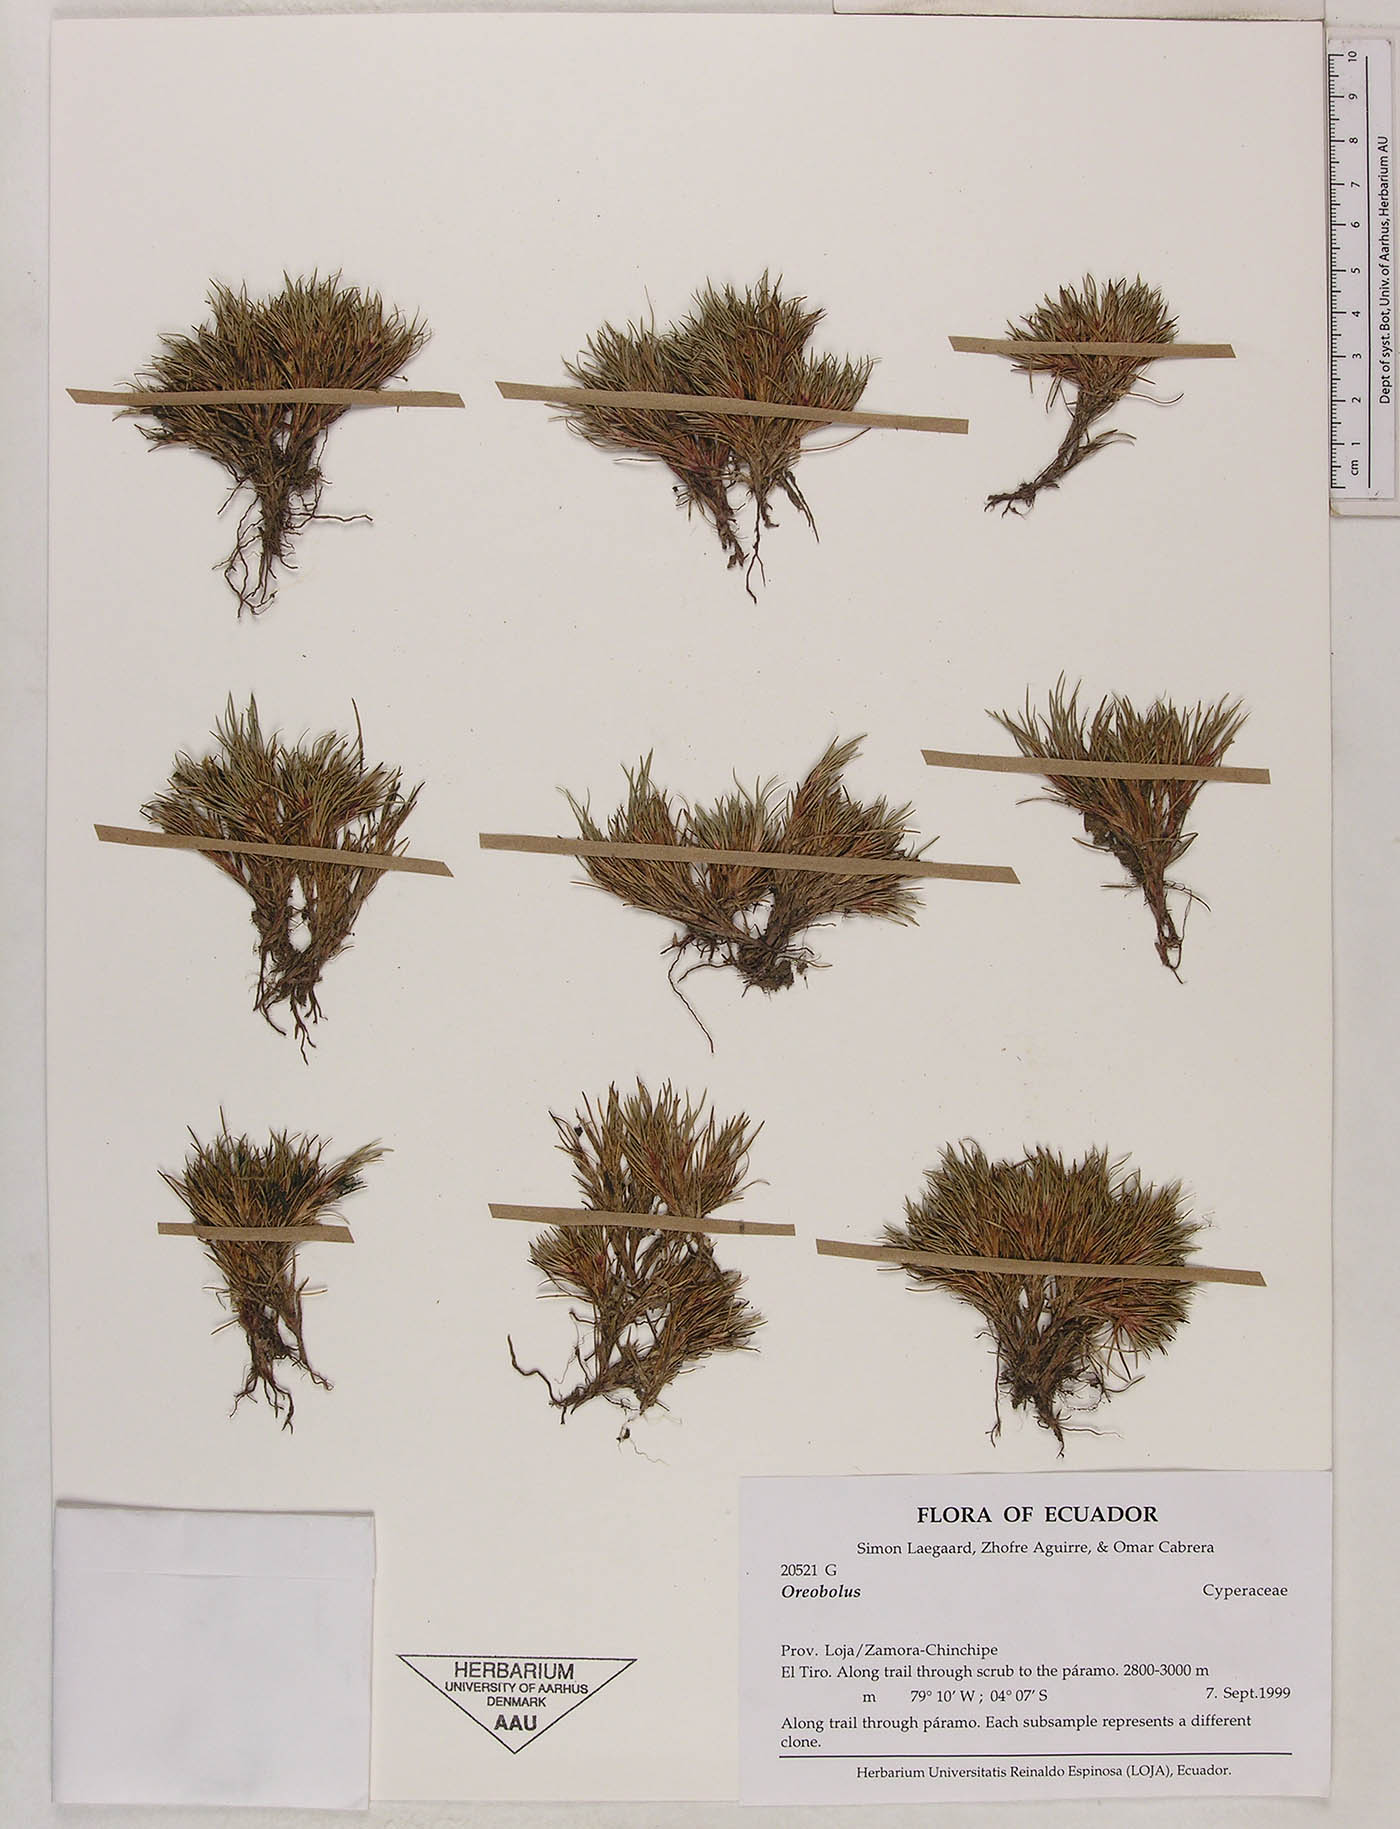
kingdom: Plantae
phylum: Tracheophyta
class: Liliopsida
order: Poales
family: Cyperaceae
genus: Oreobolus
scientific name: Oreobolus
